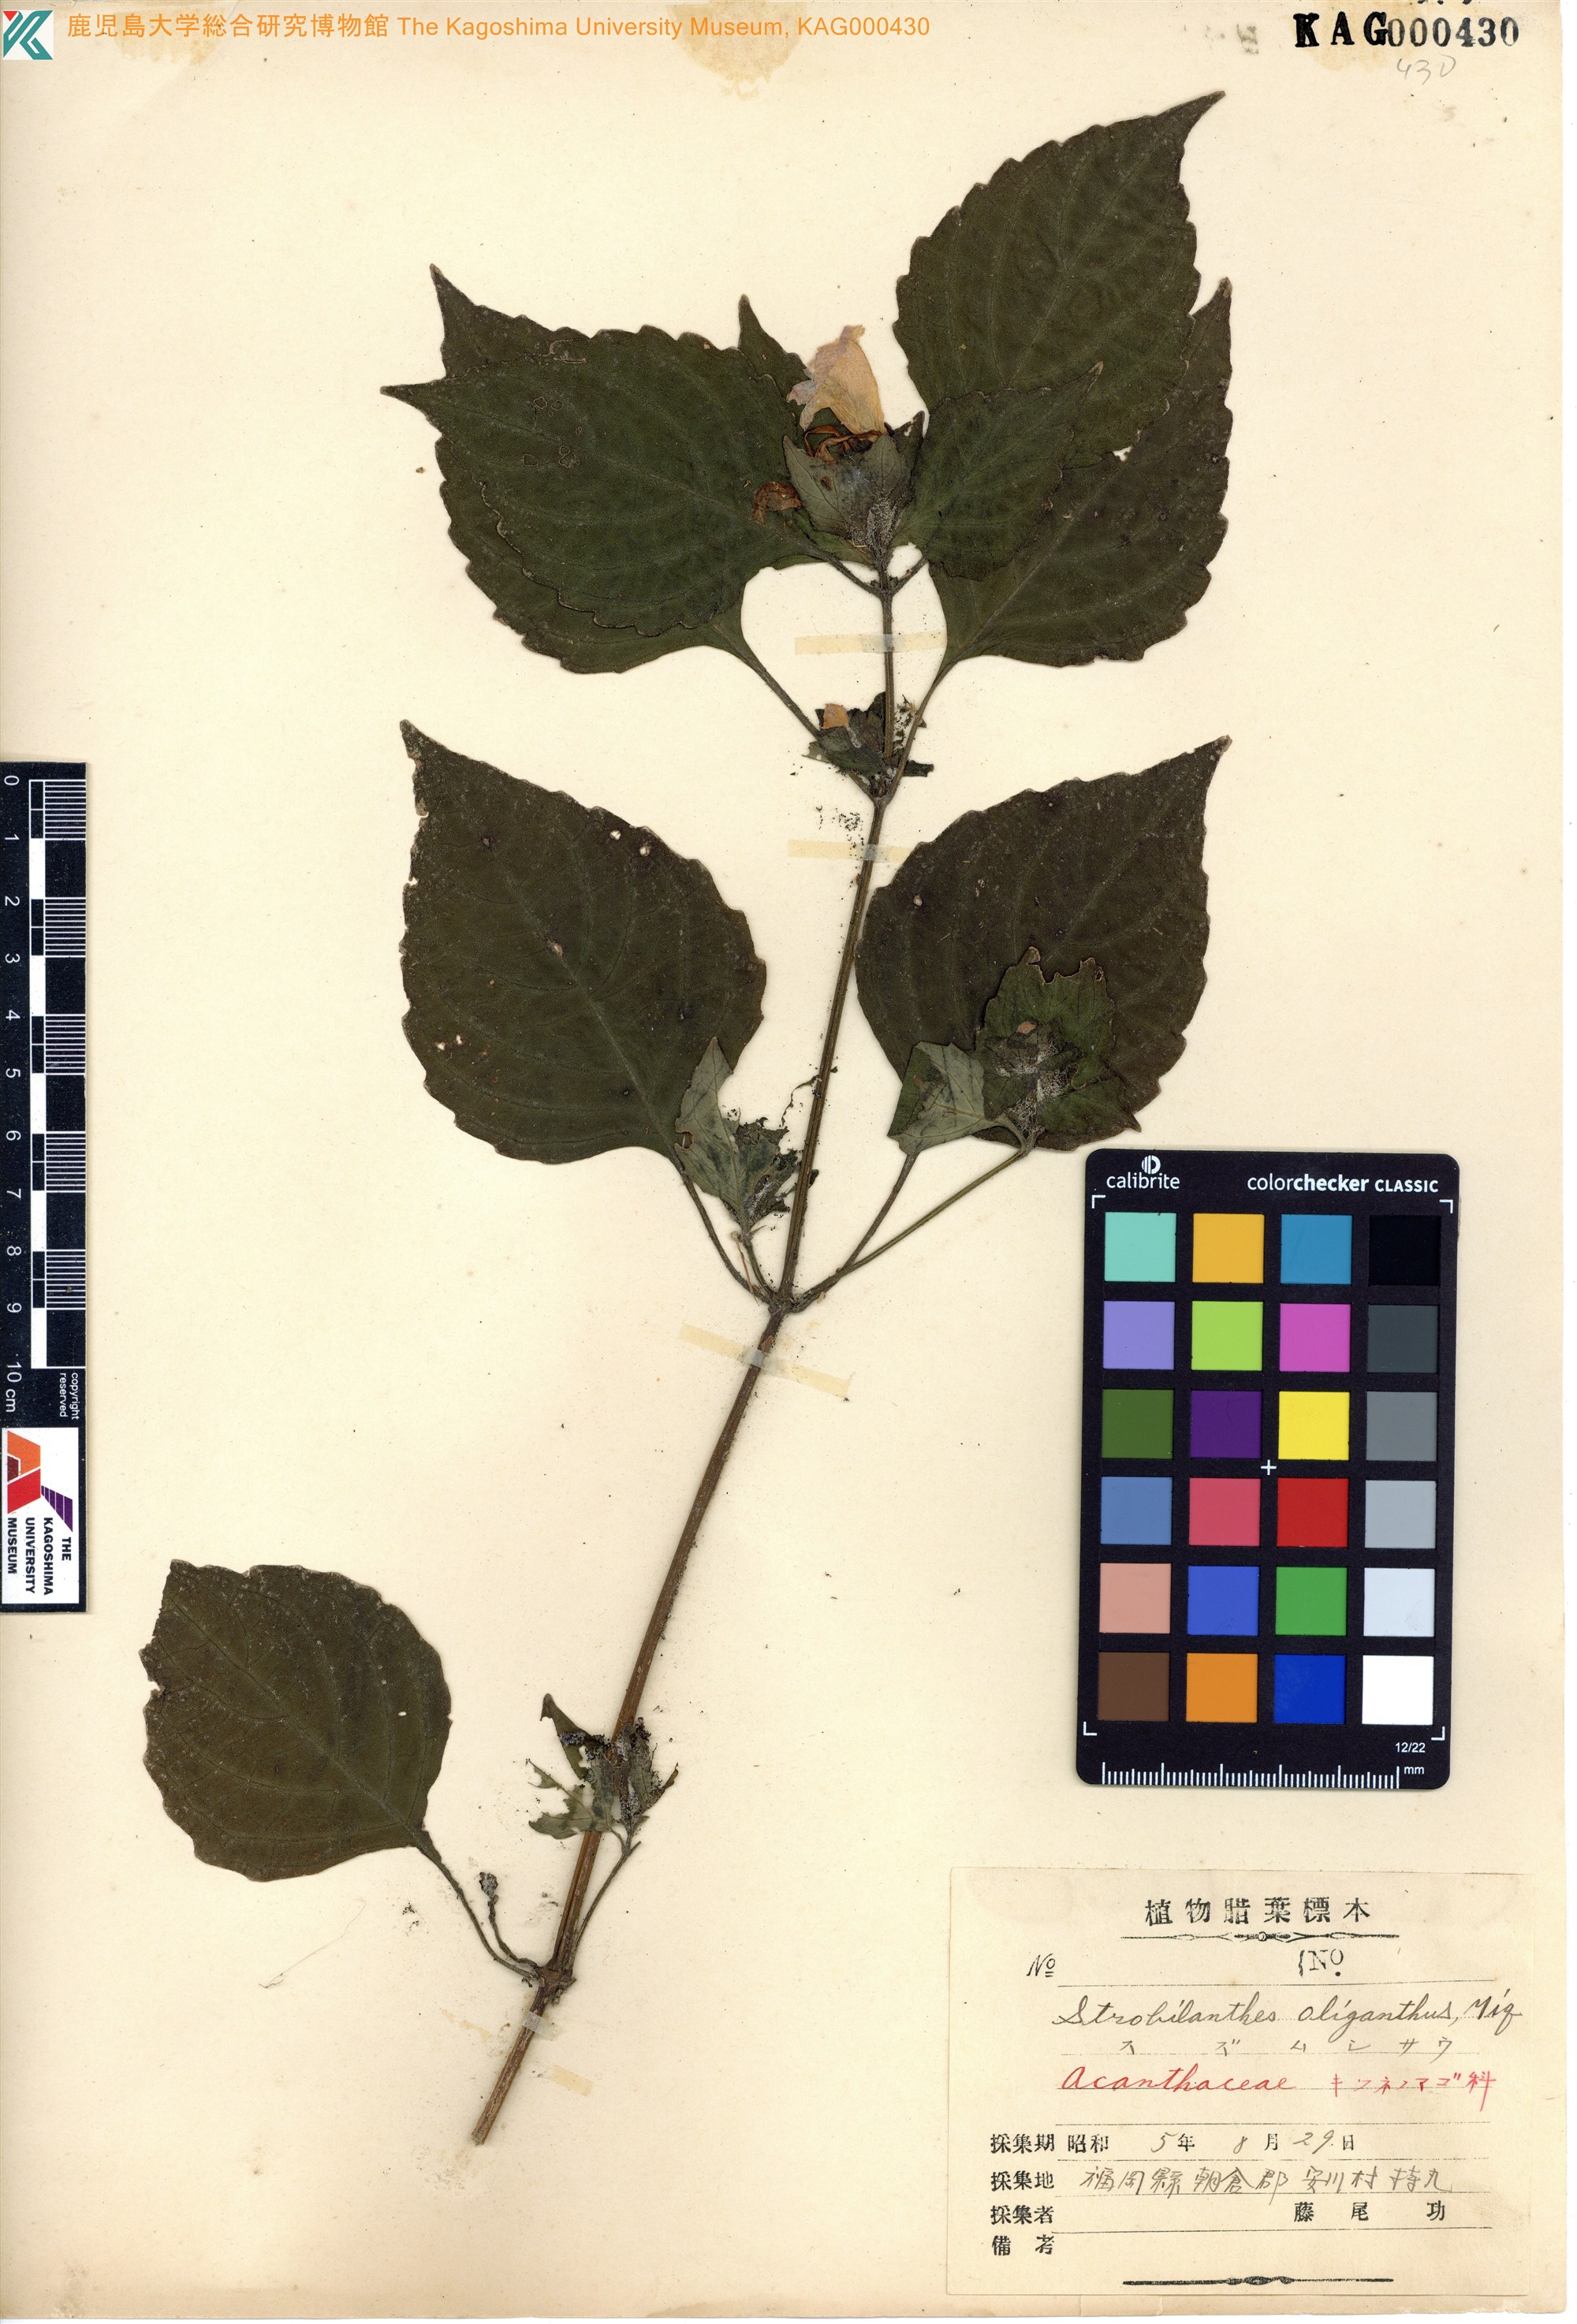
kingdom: Plantae
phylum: Tracheophyta
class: Magnoliopsida
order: Lamiales
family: Acanthaceae
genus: Strobilanthes
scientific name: Strobilanthes oligantha
